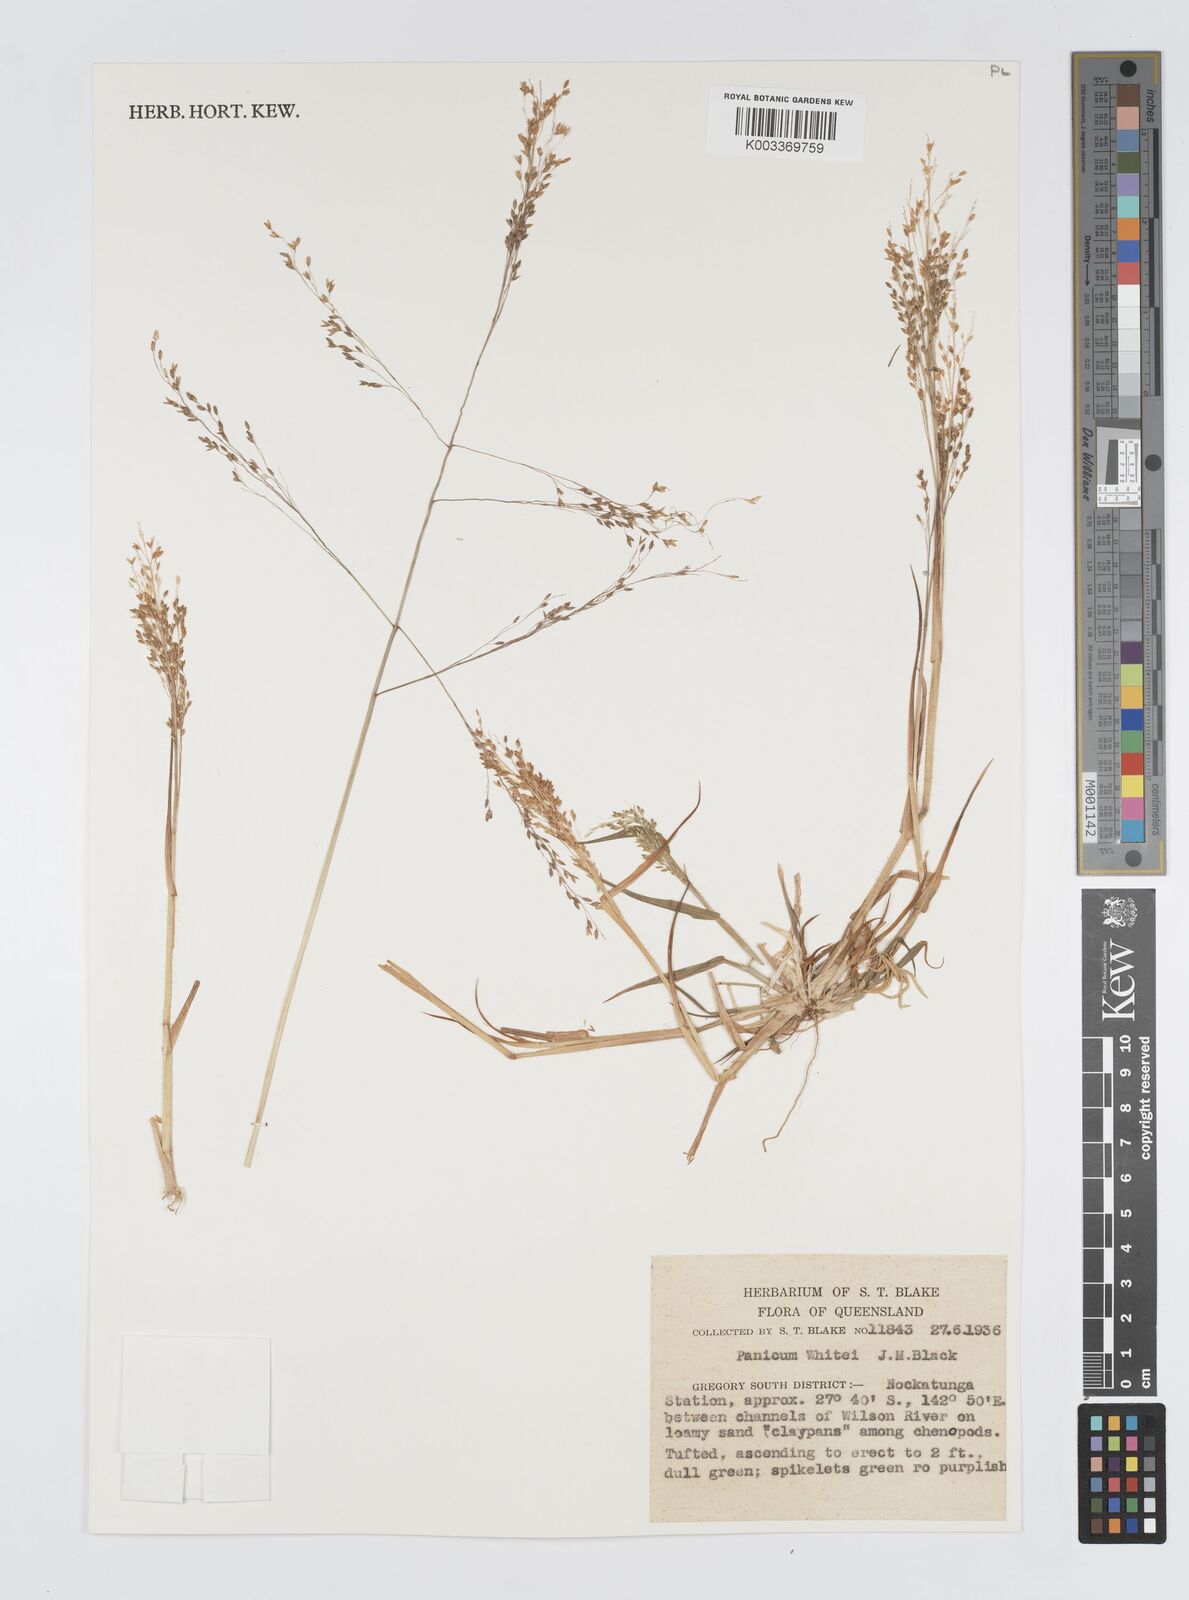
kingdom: Plantae
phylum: Tracheophyta
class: Liliopsida
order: Poales
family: Poaceae
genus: Panicum
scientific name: Panicum laevinode
